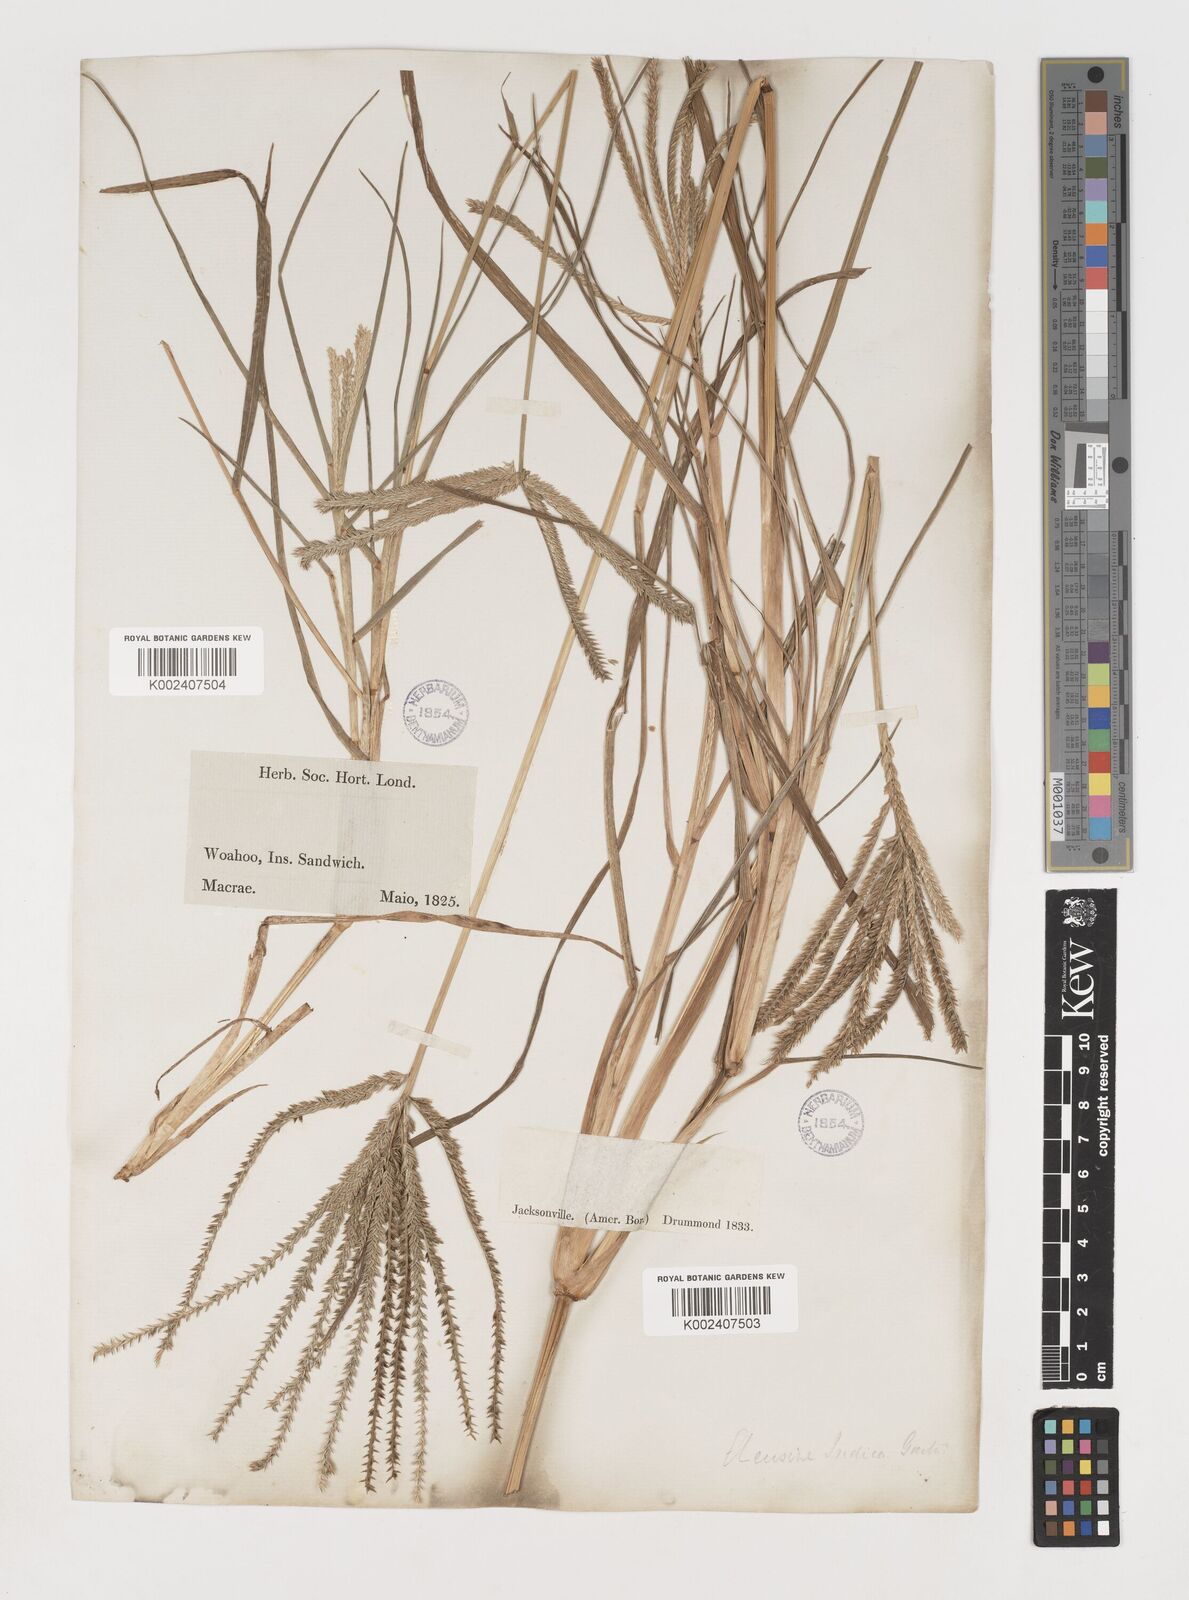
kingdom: Plantae
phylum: Tracheophyta
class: Liliopsida
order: Poales
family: Poaceae
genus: Eleusine
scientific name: Eleusine indica
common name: Yard-grass
